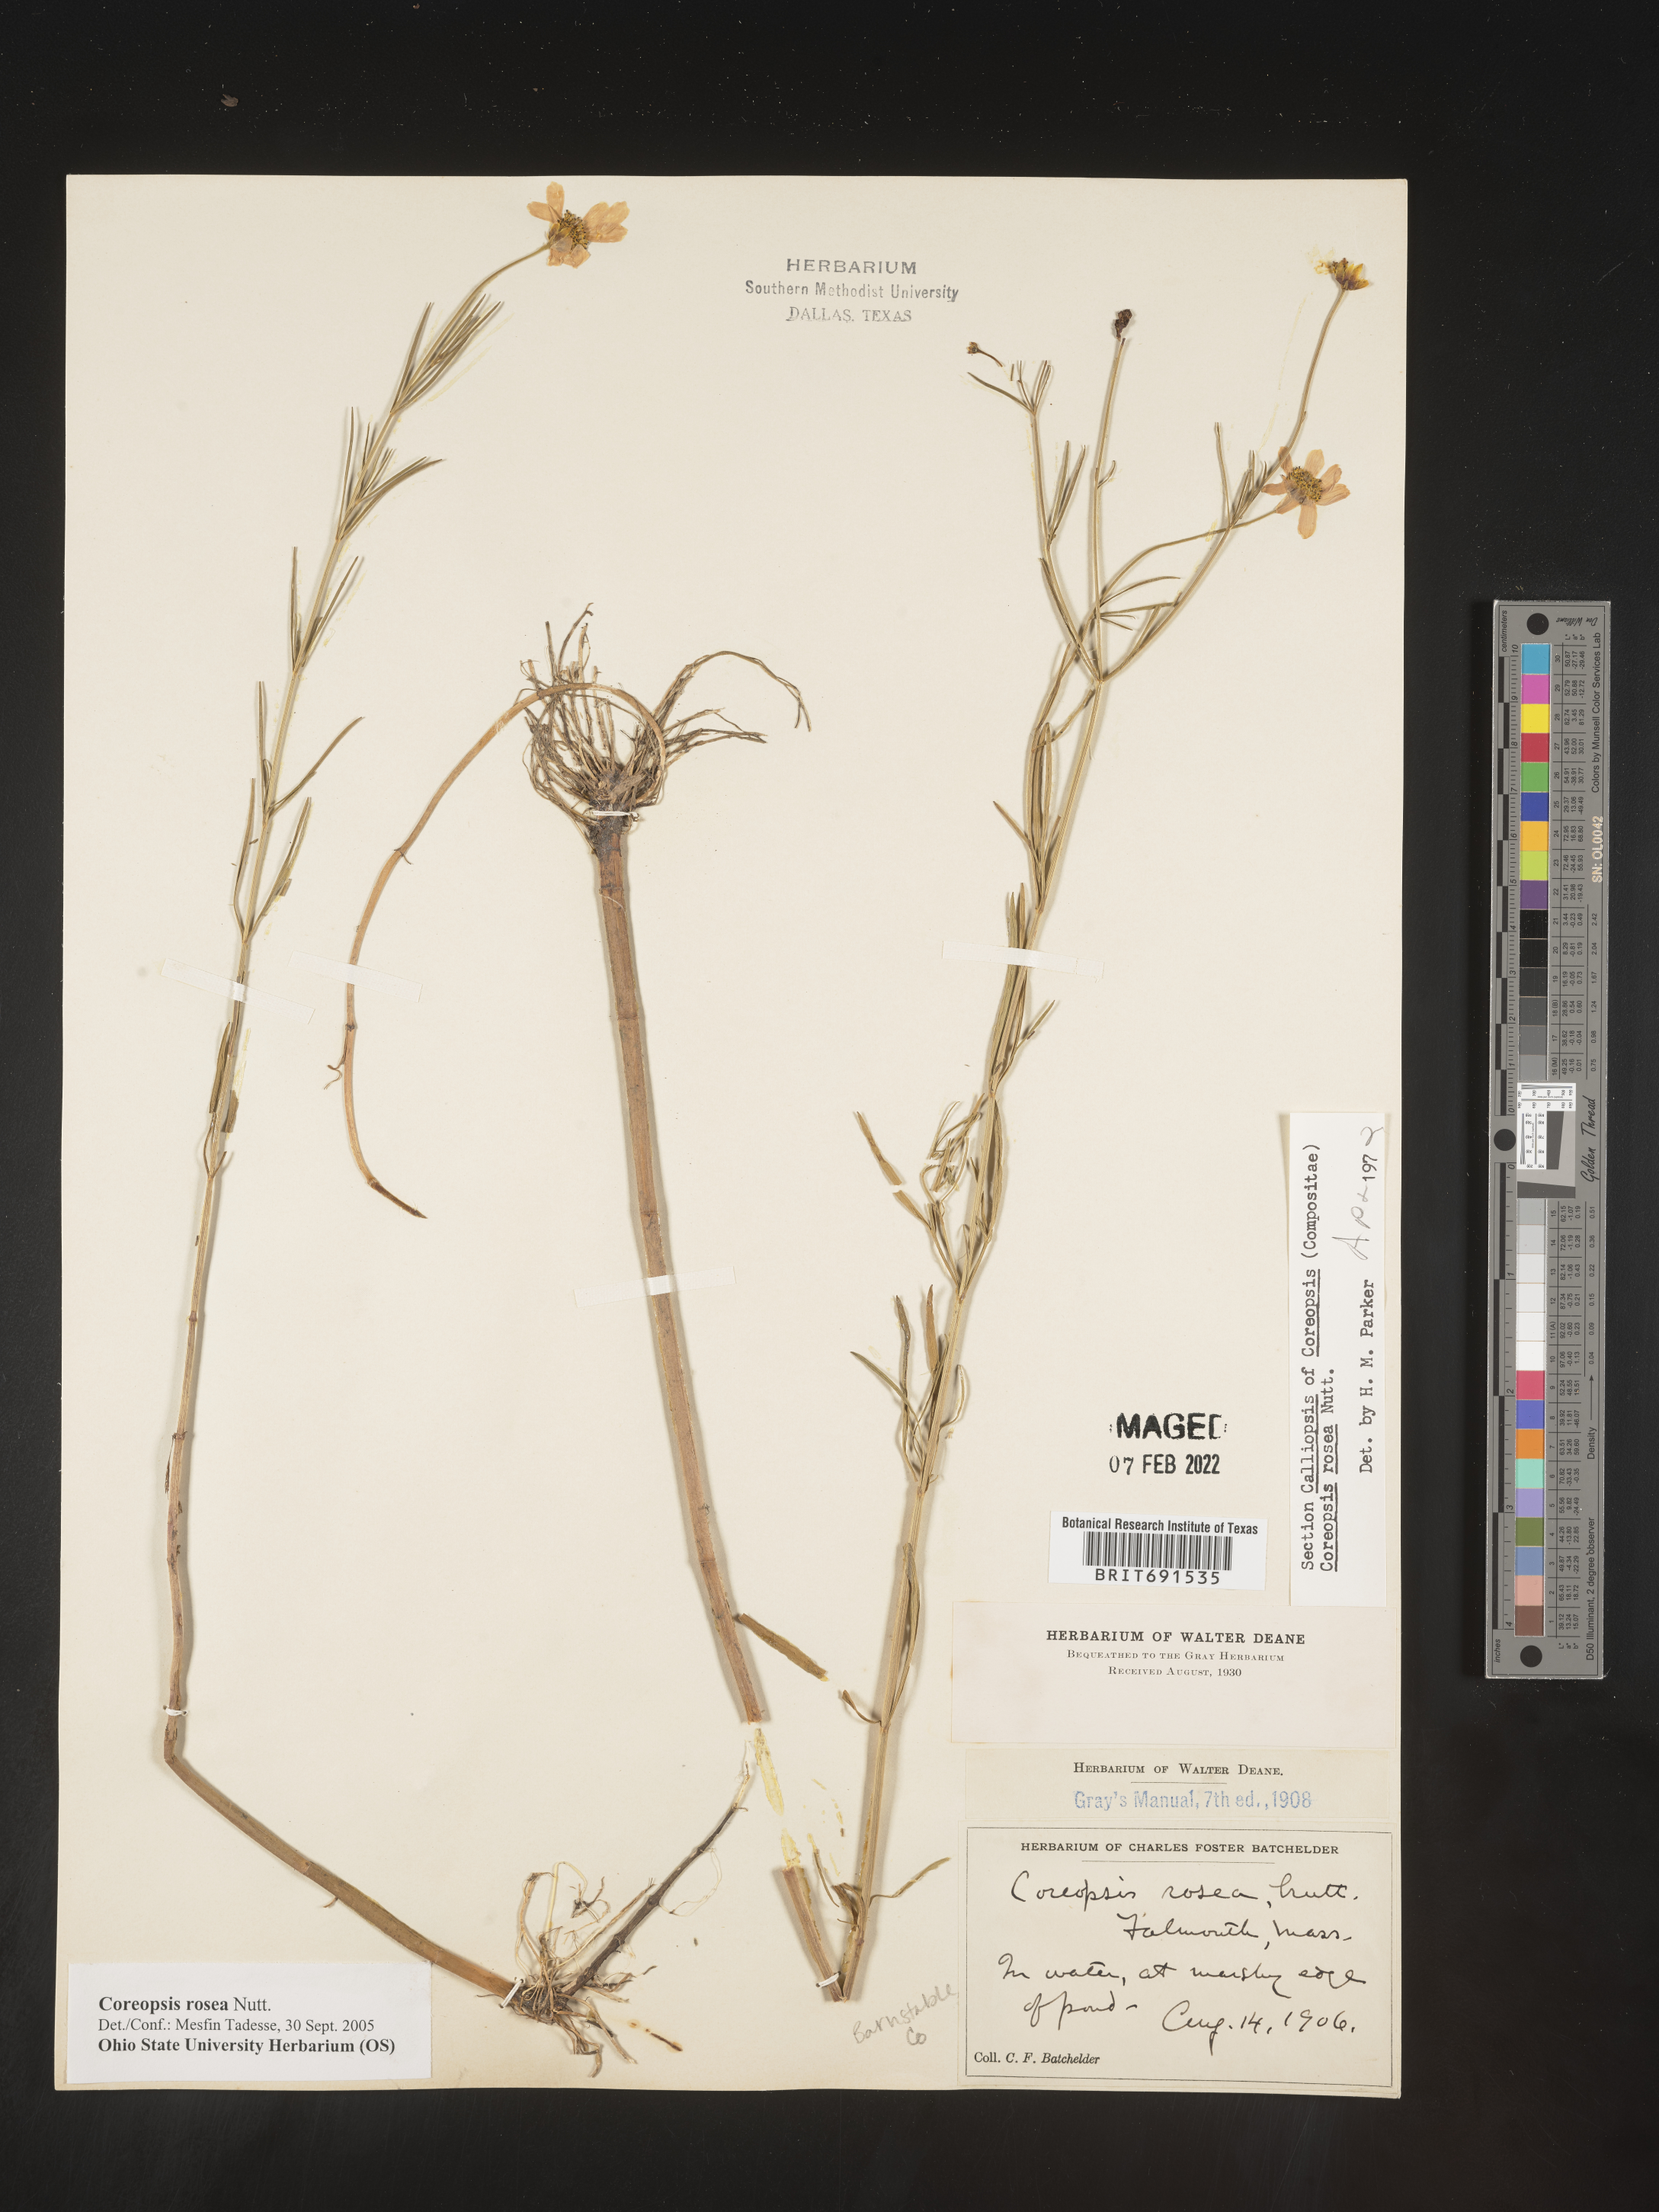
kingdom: Plantae
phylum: Tracheophyta
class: Magnoliopsida
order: Asterales
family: Asteraceae
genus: Coreopsis
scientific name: Coreopsis rosea
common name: Pink coreopsis
